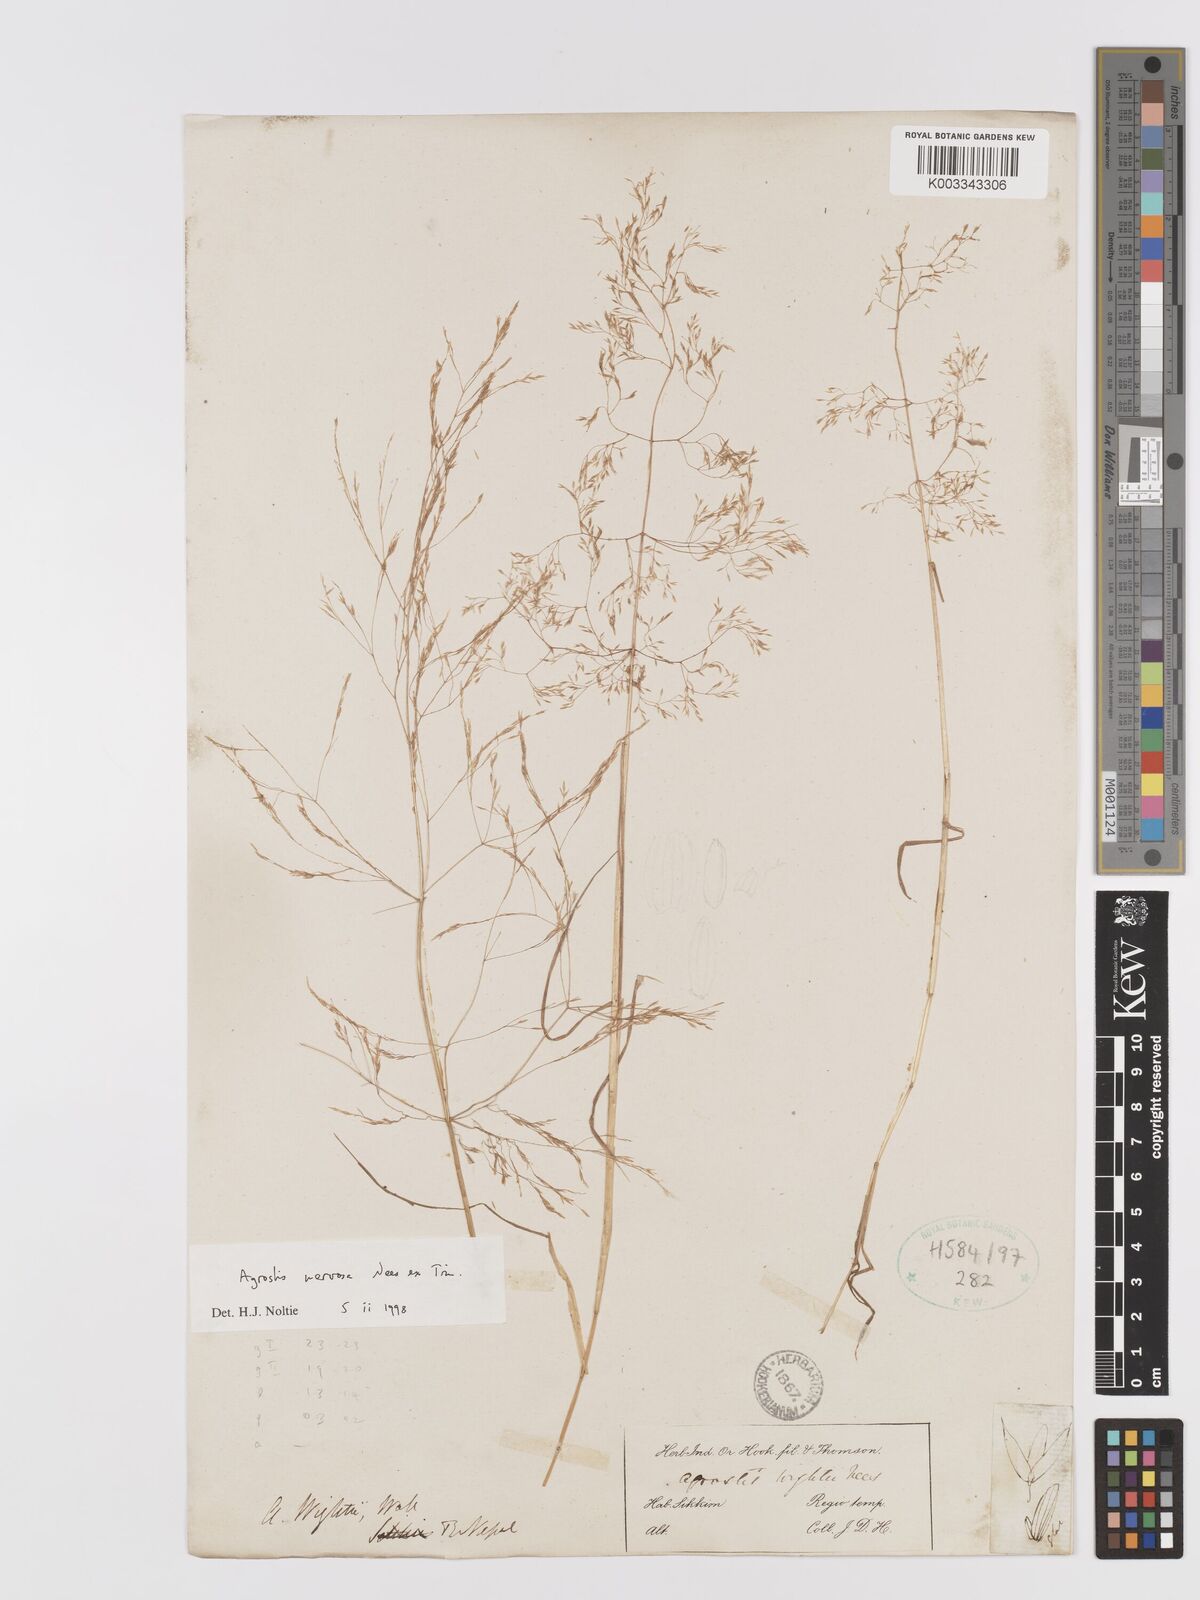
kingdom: Plantae
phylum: Tracheophyta
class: Liliopsida
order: Poales
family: Poaceae
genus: Agrostis
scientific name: Agrostis nervosa
